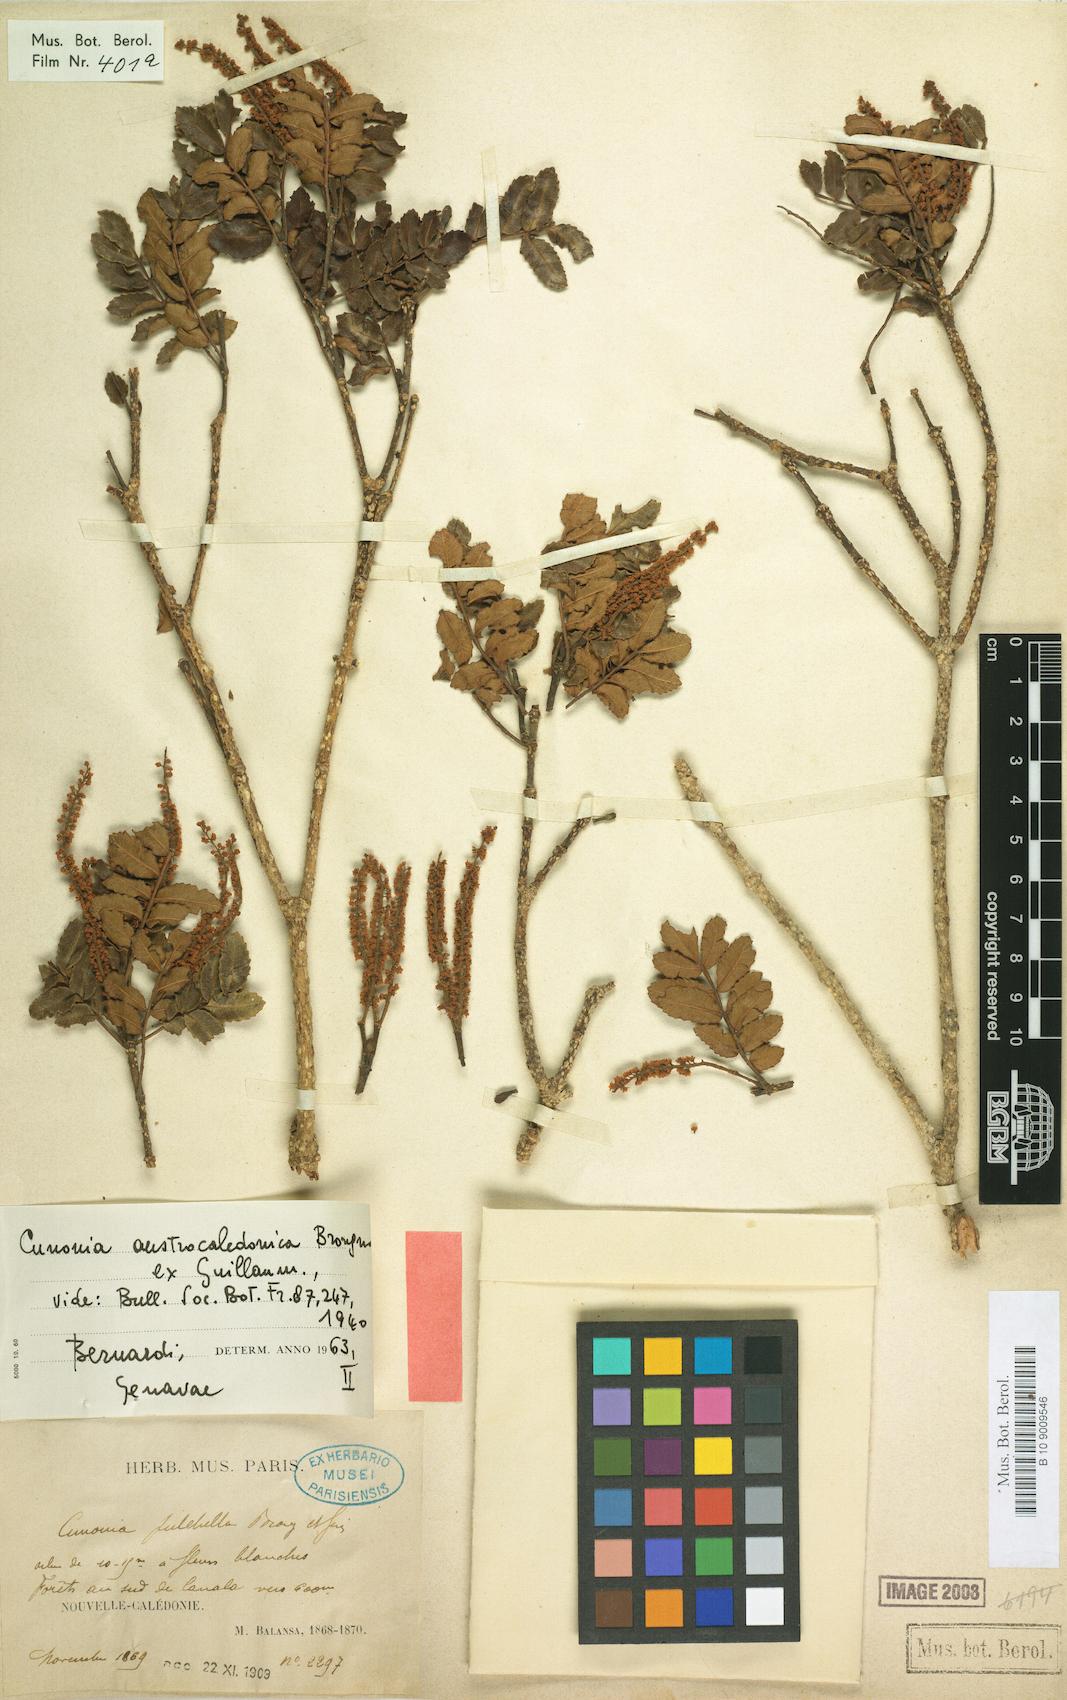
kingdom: Plantae
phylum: Tracheophyta
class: Magnoliopsida
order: Oxalidales
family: Cunoniaceae
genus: Cunonia
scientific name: Cunonia austrocaledonica
